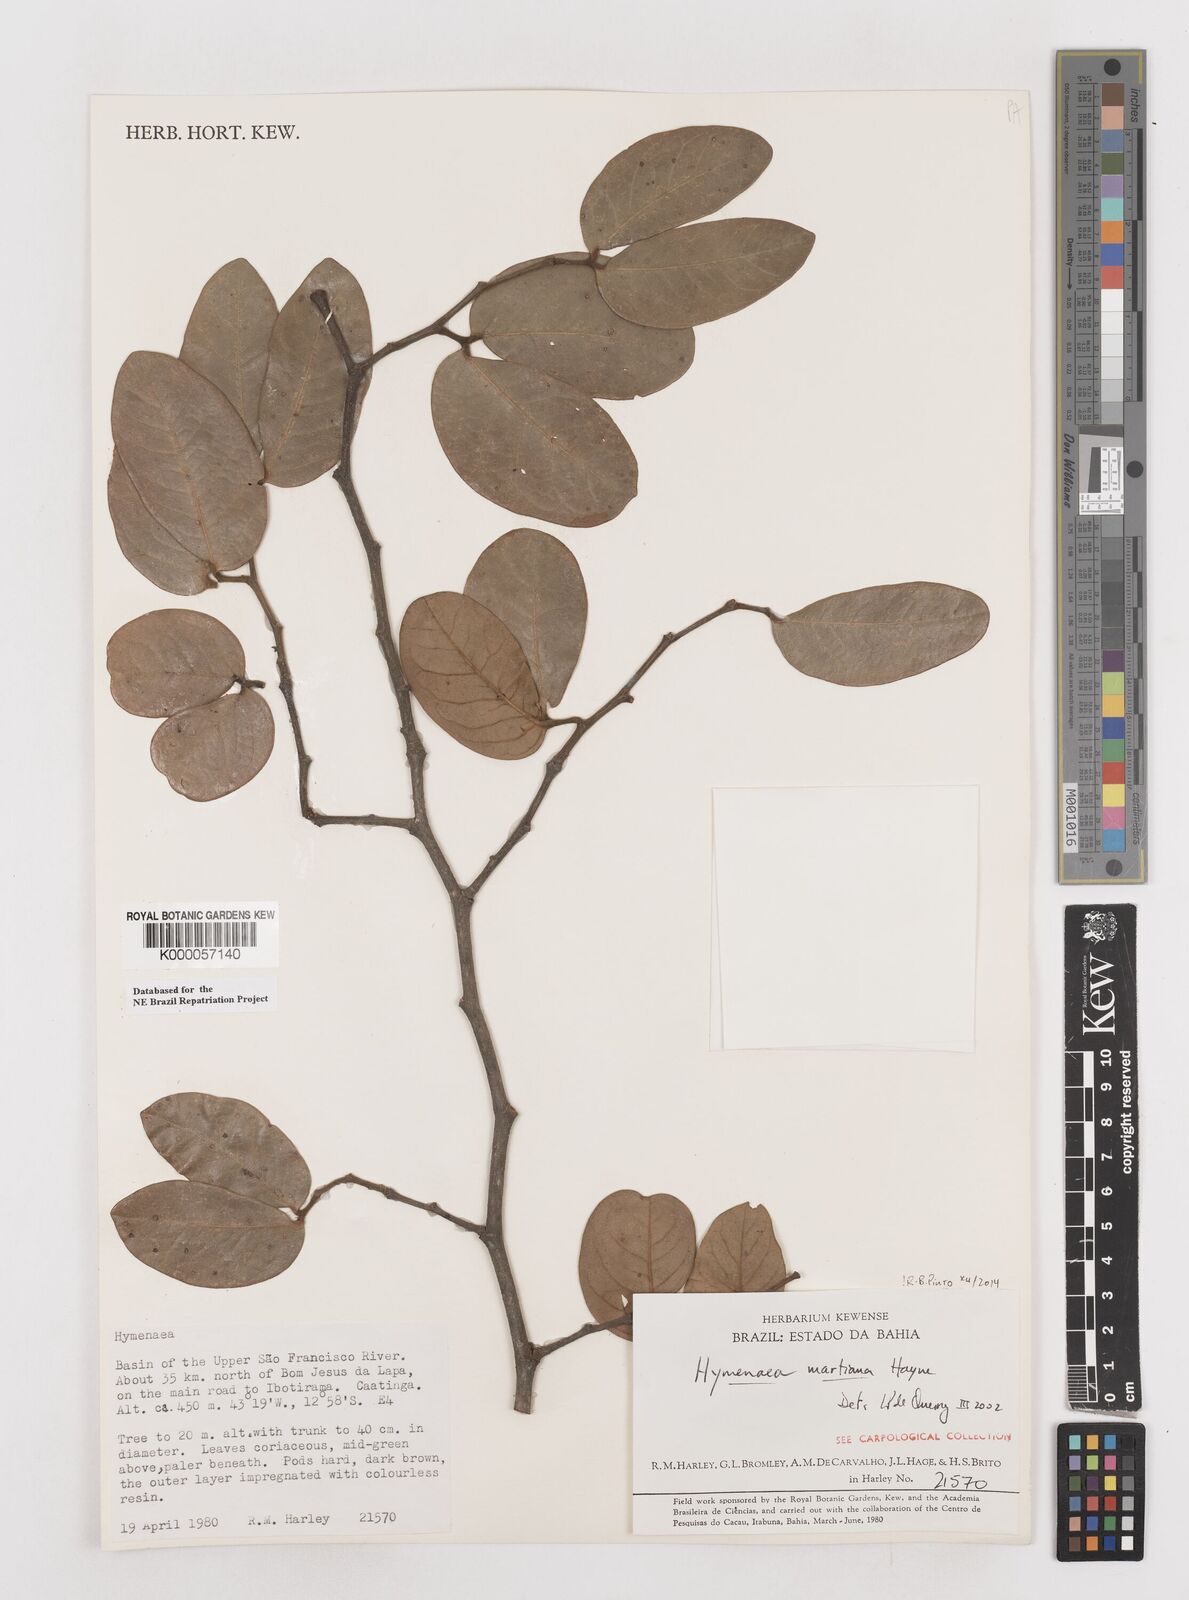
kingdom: Plantae
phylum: Tracheophyta
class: Magnoliopsida
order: Fabales
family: Fabaceae
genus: Hymenaea
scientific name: Hymenaea martiana
